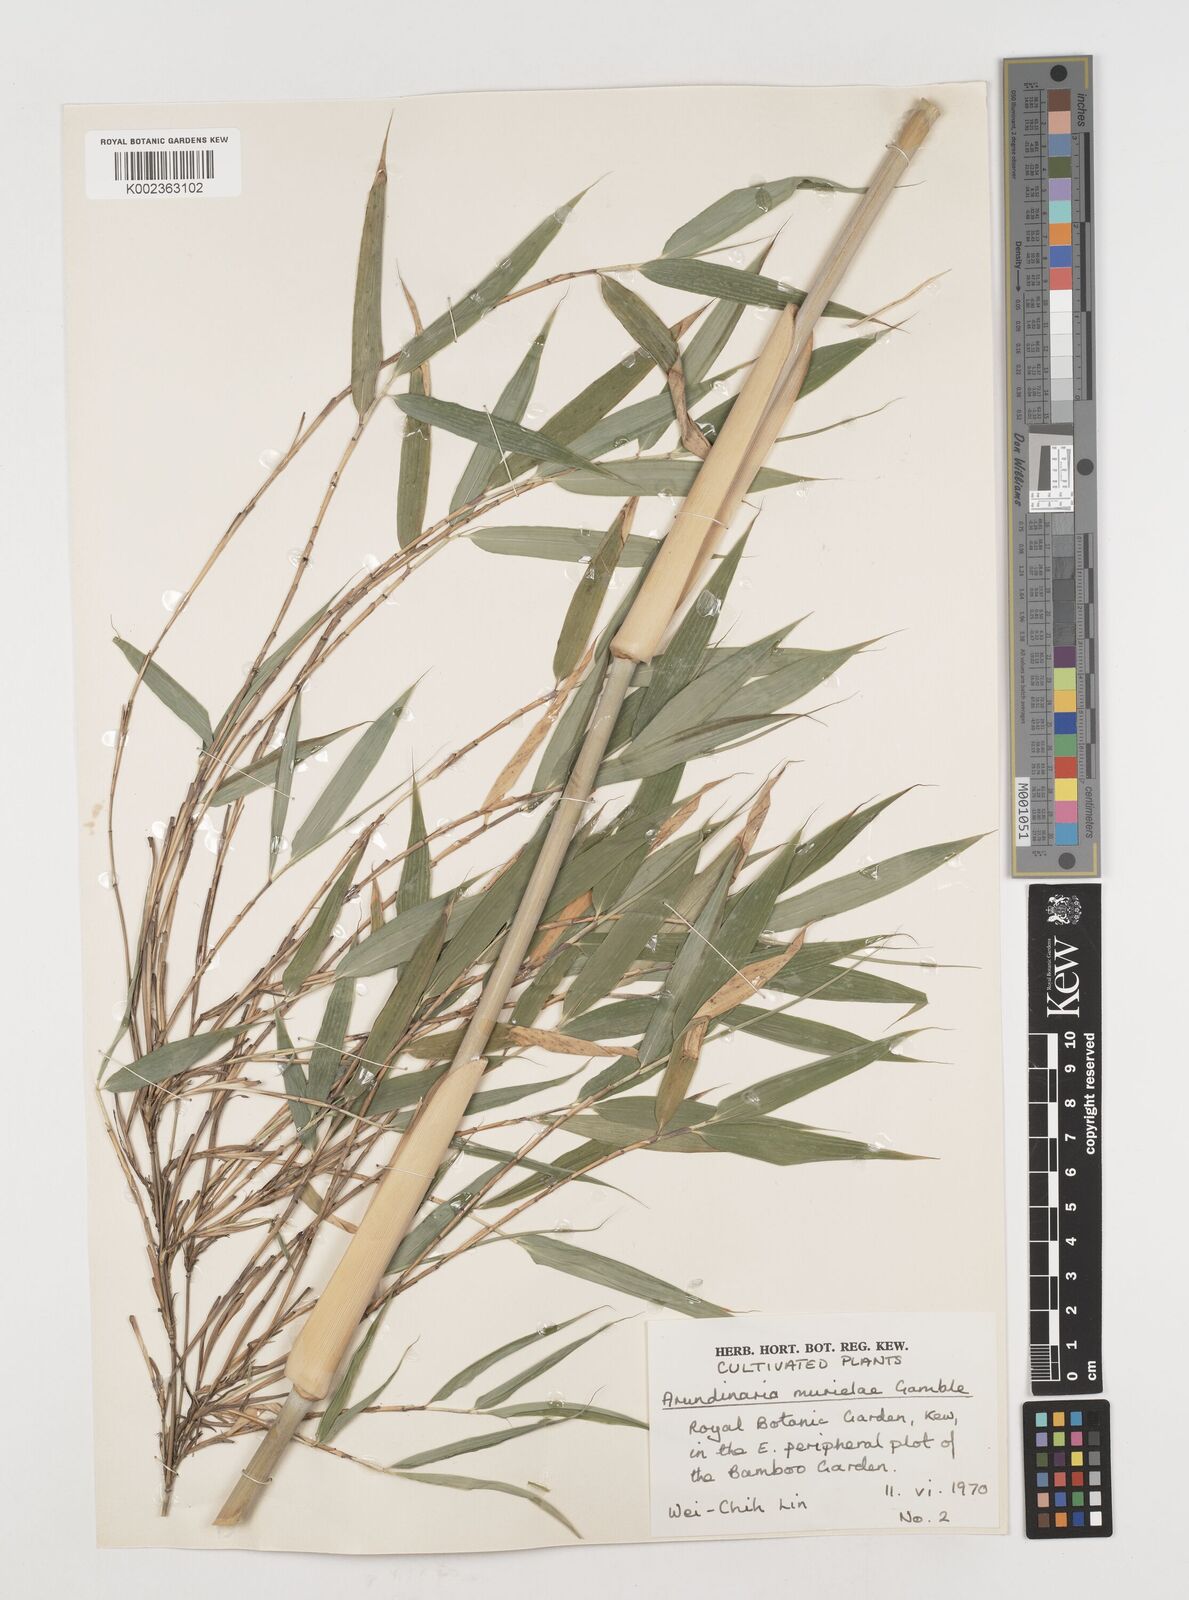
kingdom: Plantae
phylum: Tracheophyta
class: Liliopsida
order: Poales
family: Poaceae
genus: Fargesia
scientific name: Fargesia murielae
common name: Umbrella bamboo
